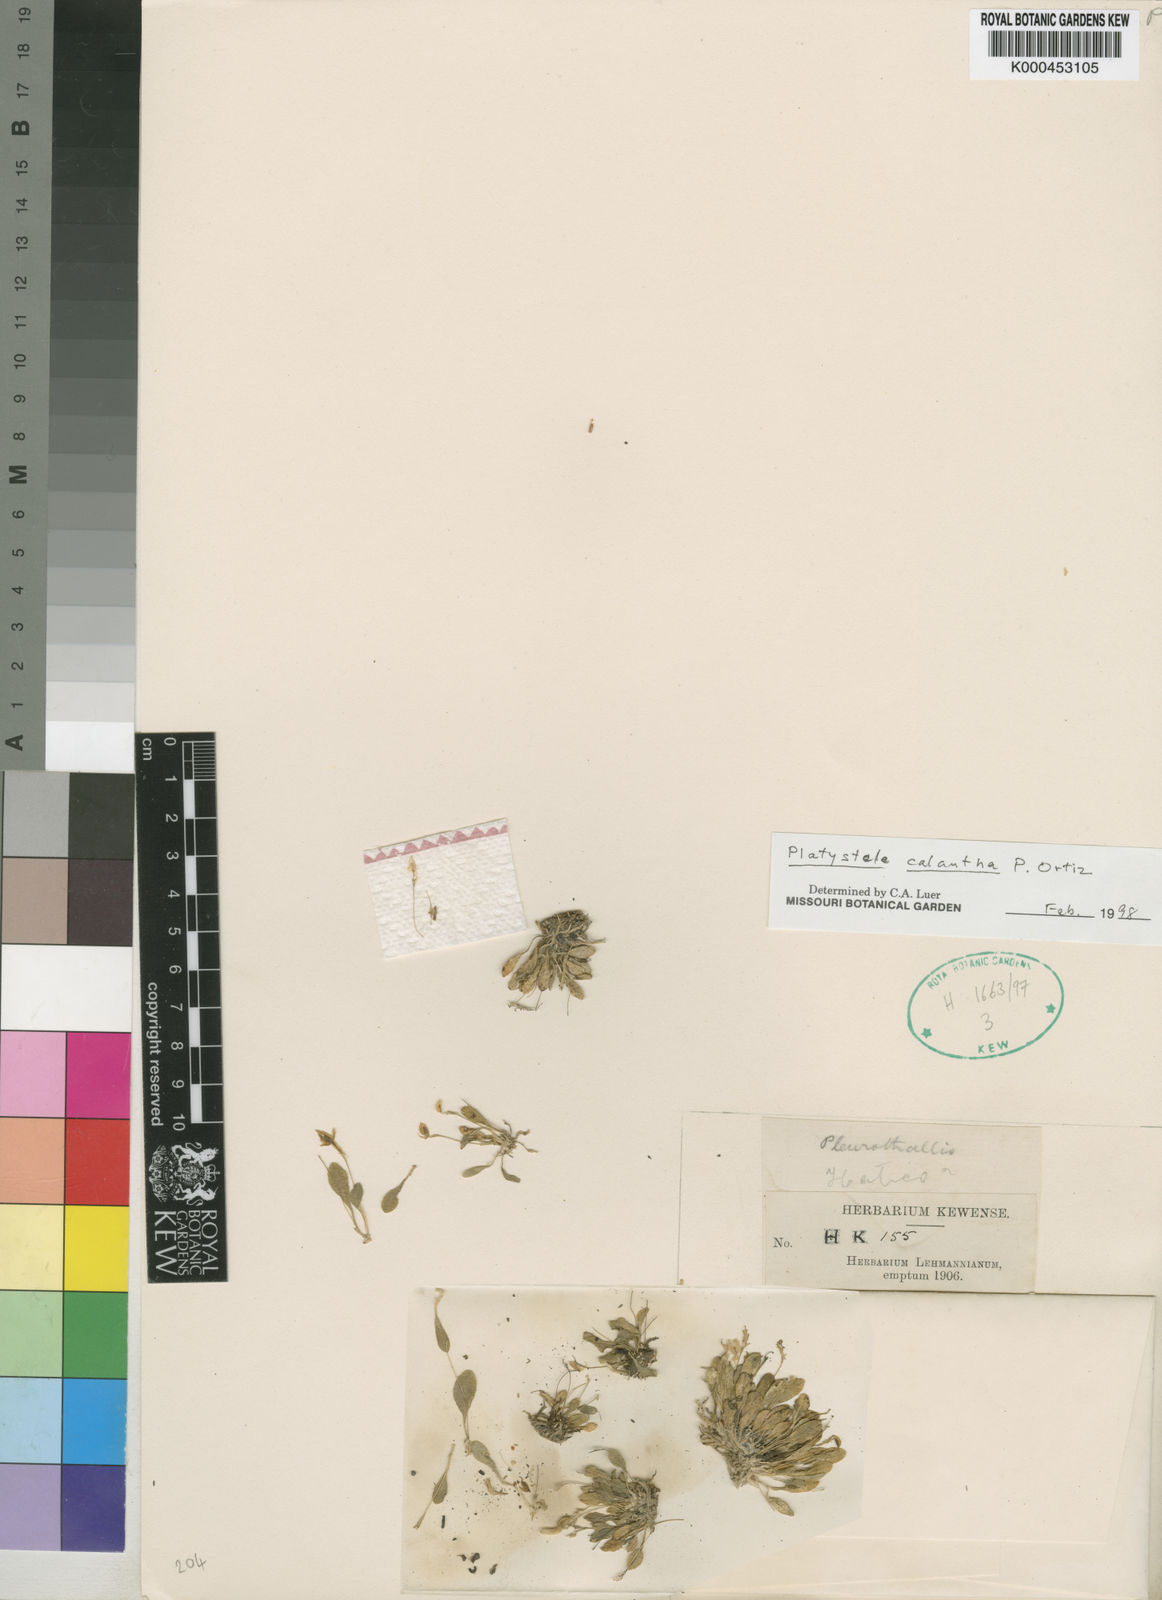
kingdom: Plantae
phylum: Tracheophyta
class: Liliopsida
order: Asparagales
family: Orchidaceae
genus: Platystele
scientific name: Platystele calantha
